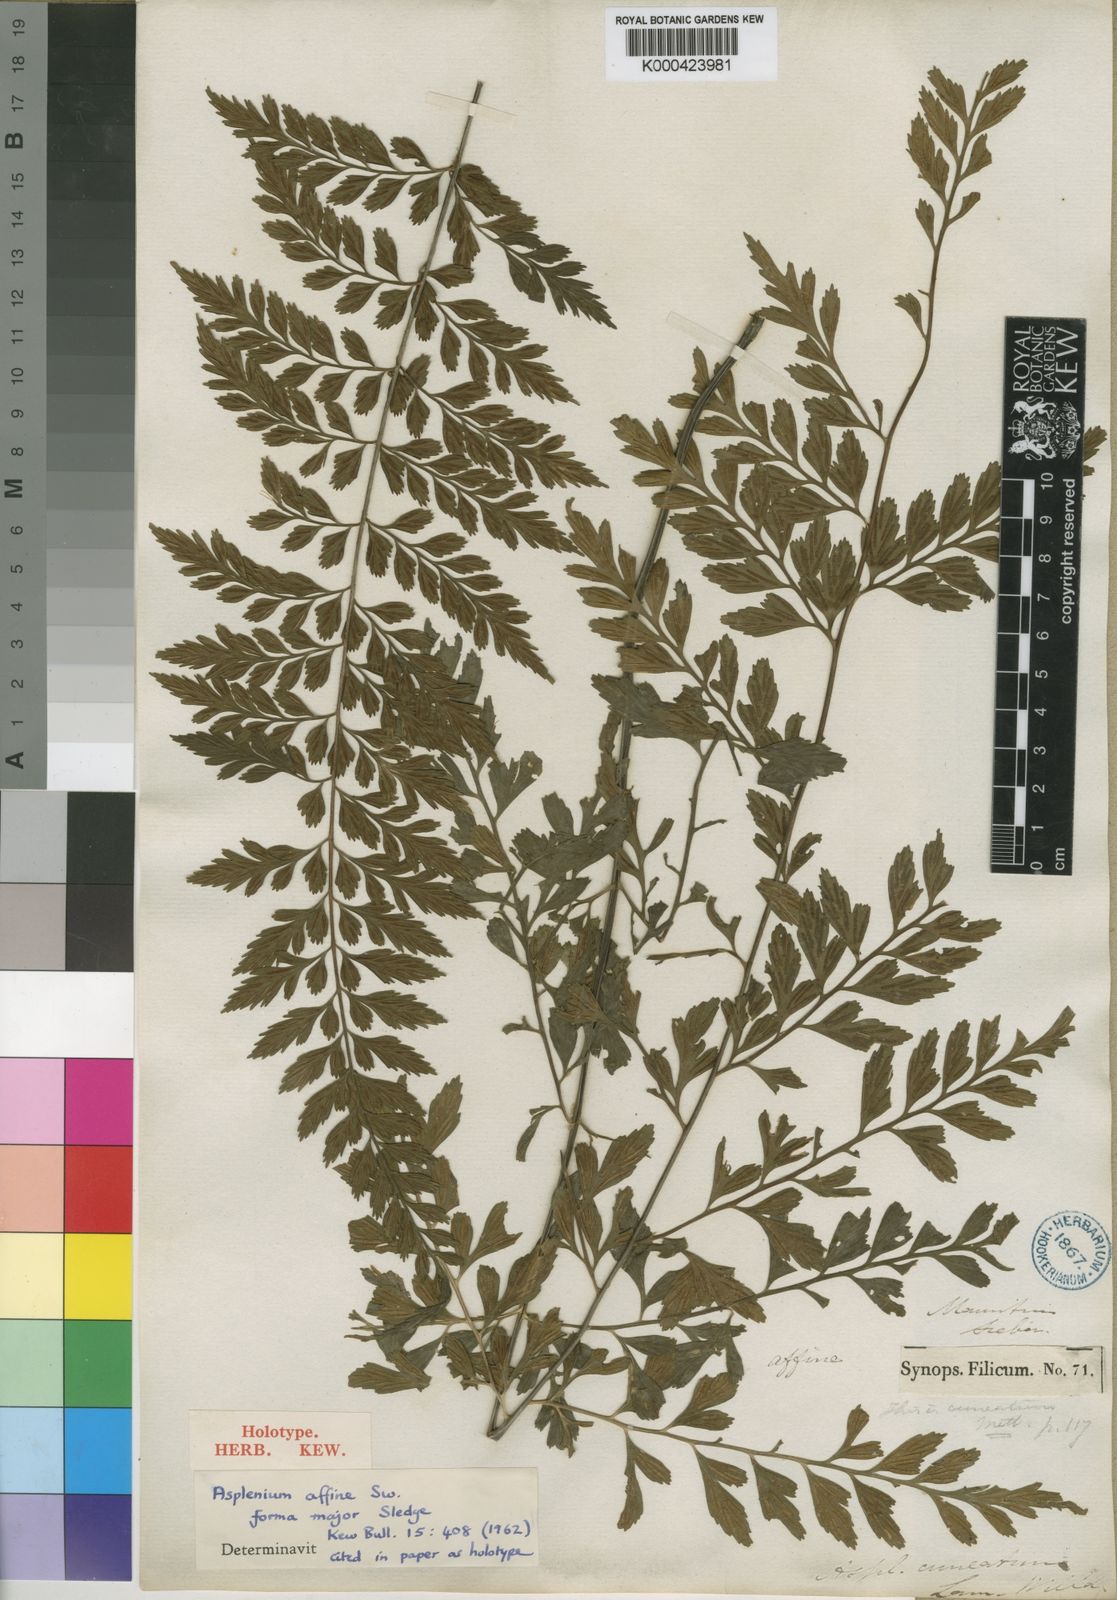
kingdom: Plantae
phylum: Tracheophyta
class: Polypodiopsida
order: Polypodiales
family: Aspleniaceae
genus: Asplenium
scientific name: Asplenium affine
